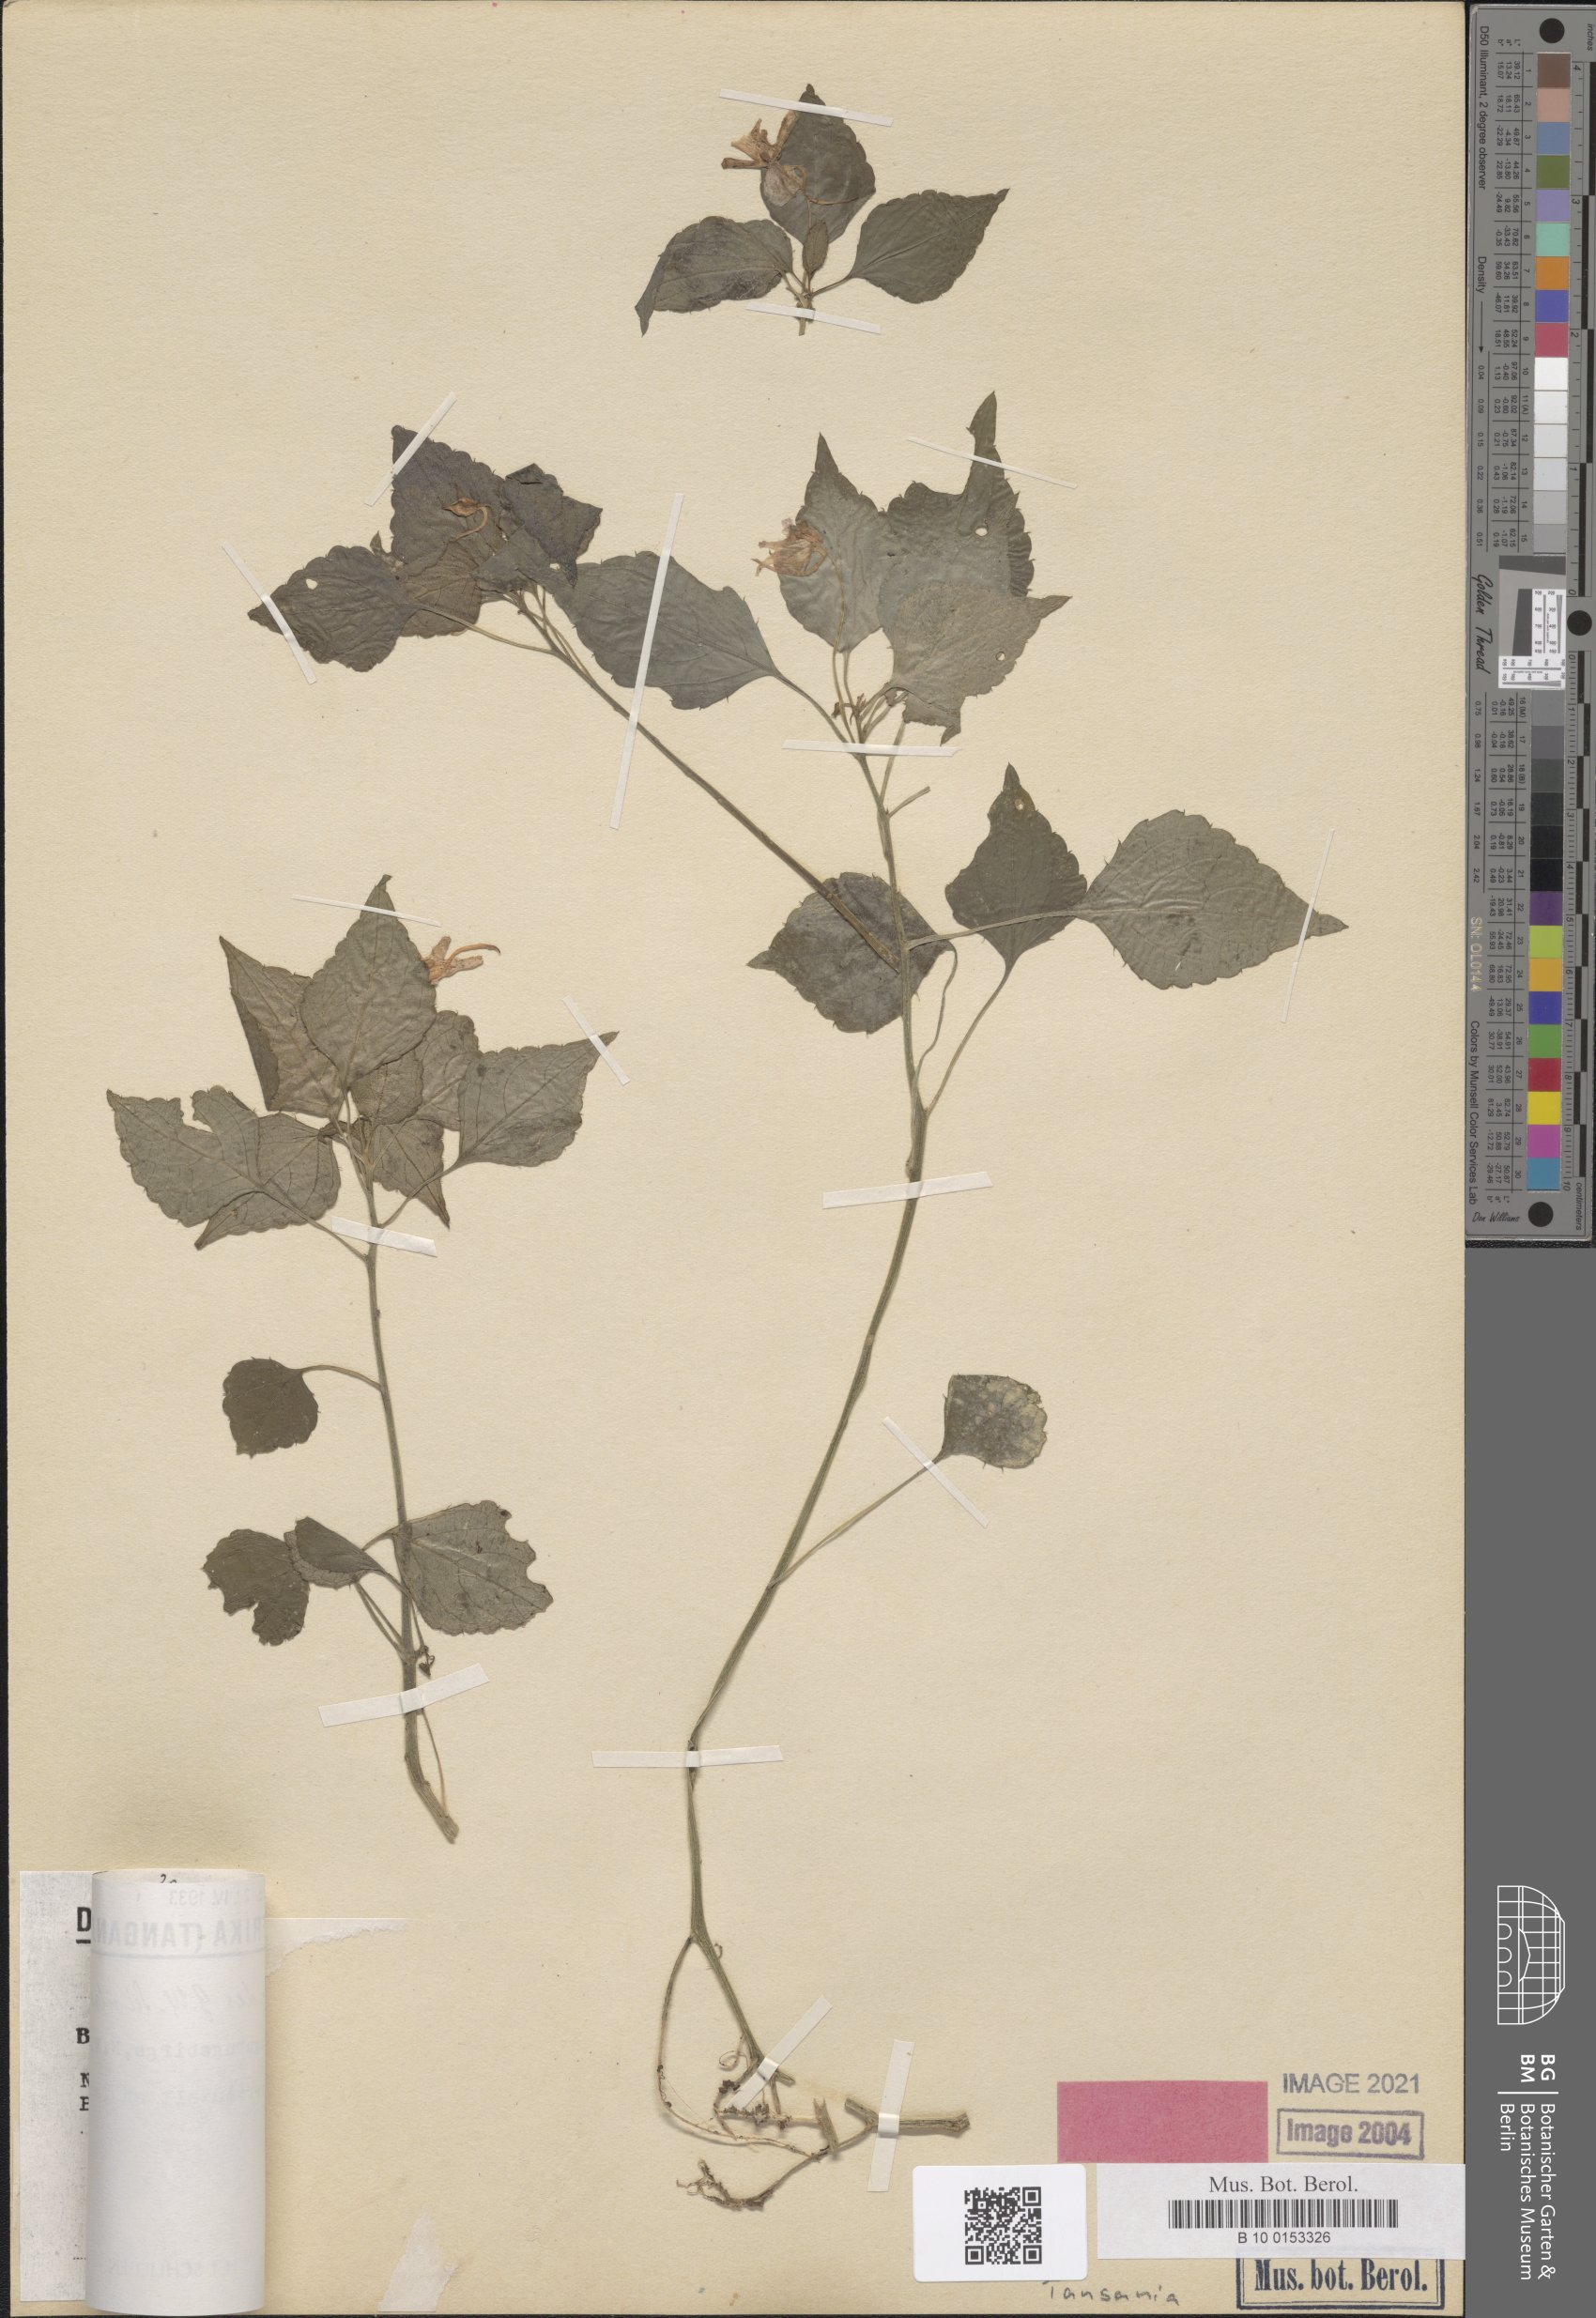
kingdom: Plantae
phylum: Tracheophyta
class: Magnoliopsida
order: Ericales
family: Balsaminaceae
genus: Impatiens
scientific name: Impatiens ioides
